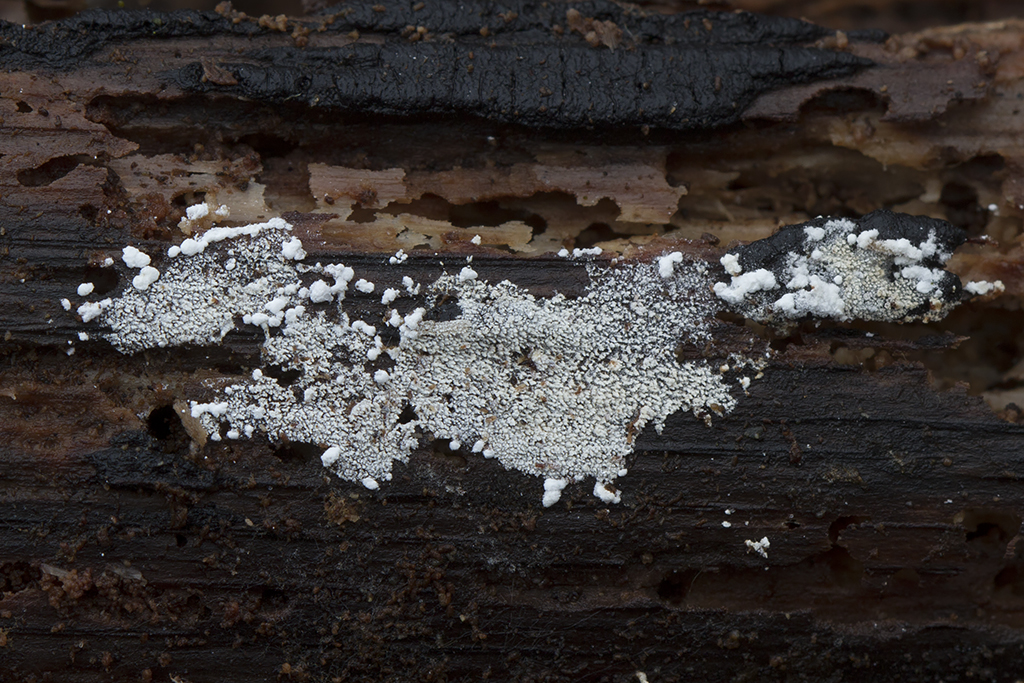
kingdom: Fungi
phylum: Basidiomycota
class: Agaricomycetes
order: Trechisporales
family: Sistotremataceae
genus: Trechispora
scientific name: Trechispora stevensonii
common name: støvende vathinde
